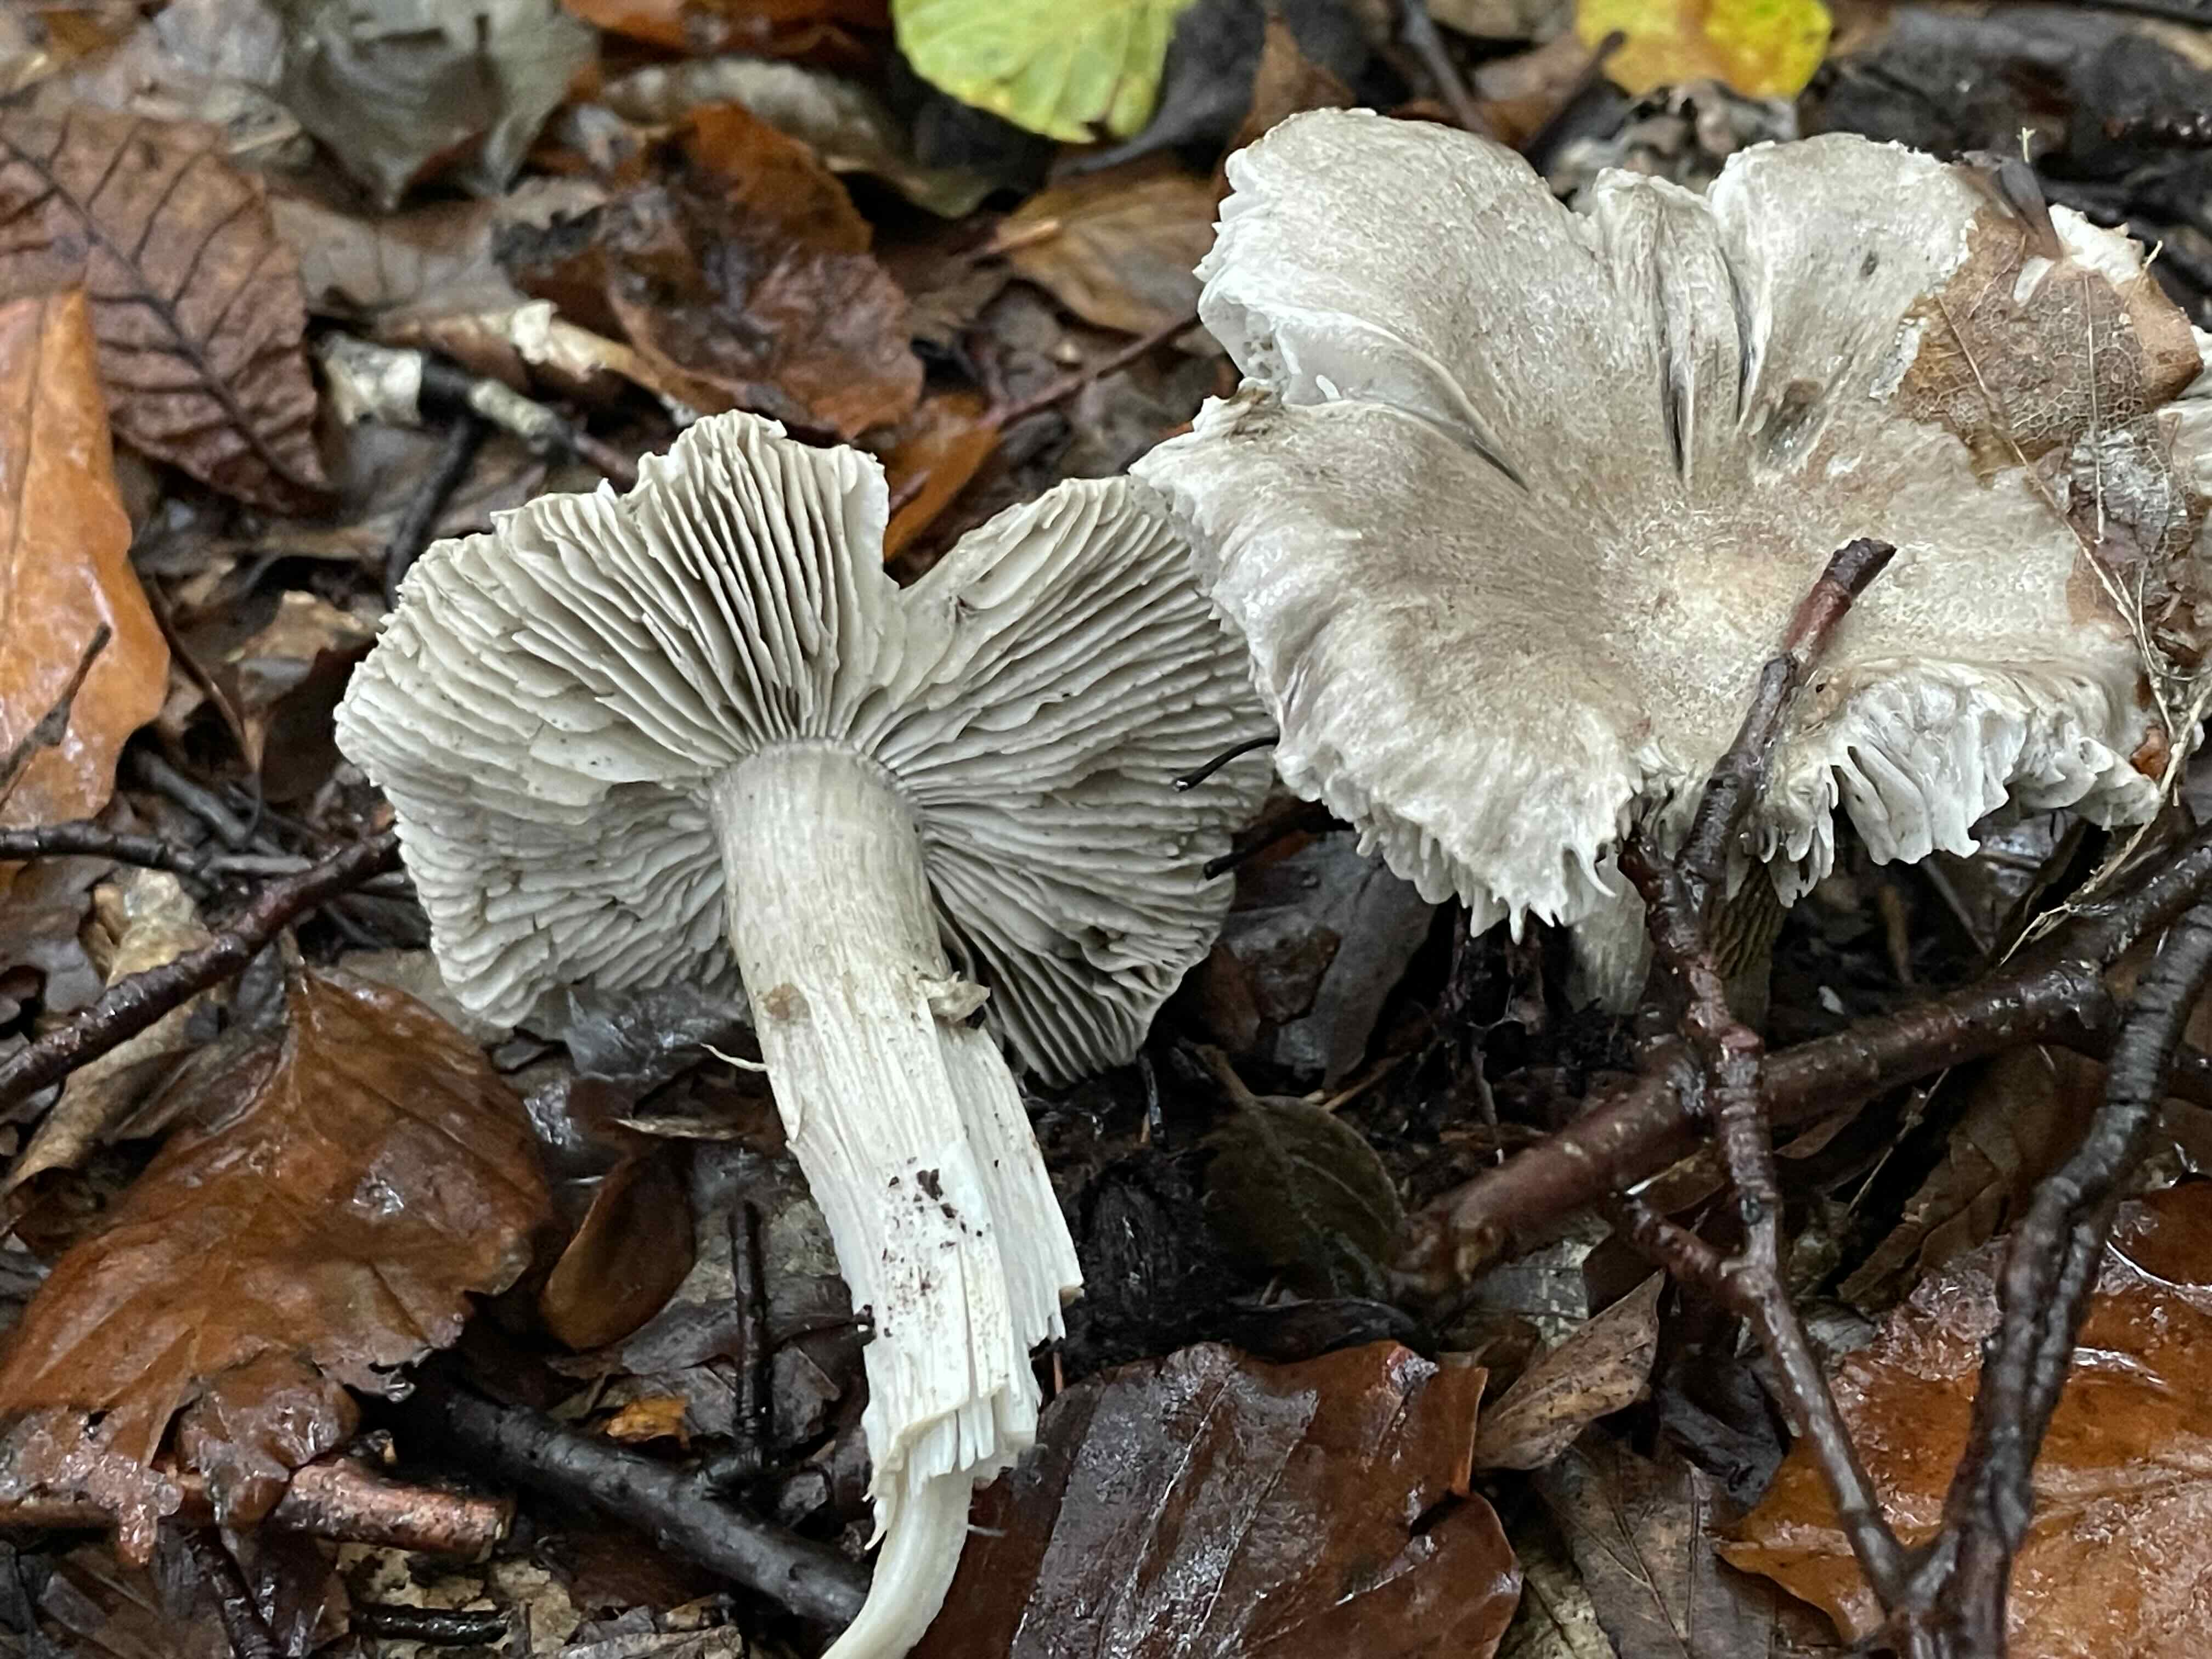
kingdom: Fungi
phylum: Basidiomycota
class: Agaricomycetes
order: Agaricales
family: Tricholomataceae
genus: Tricholoma
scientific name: Tricholoma sciodes
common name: stribet ridderhat
